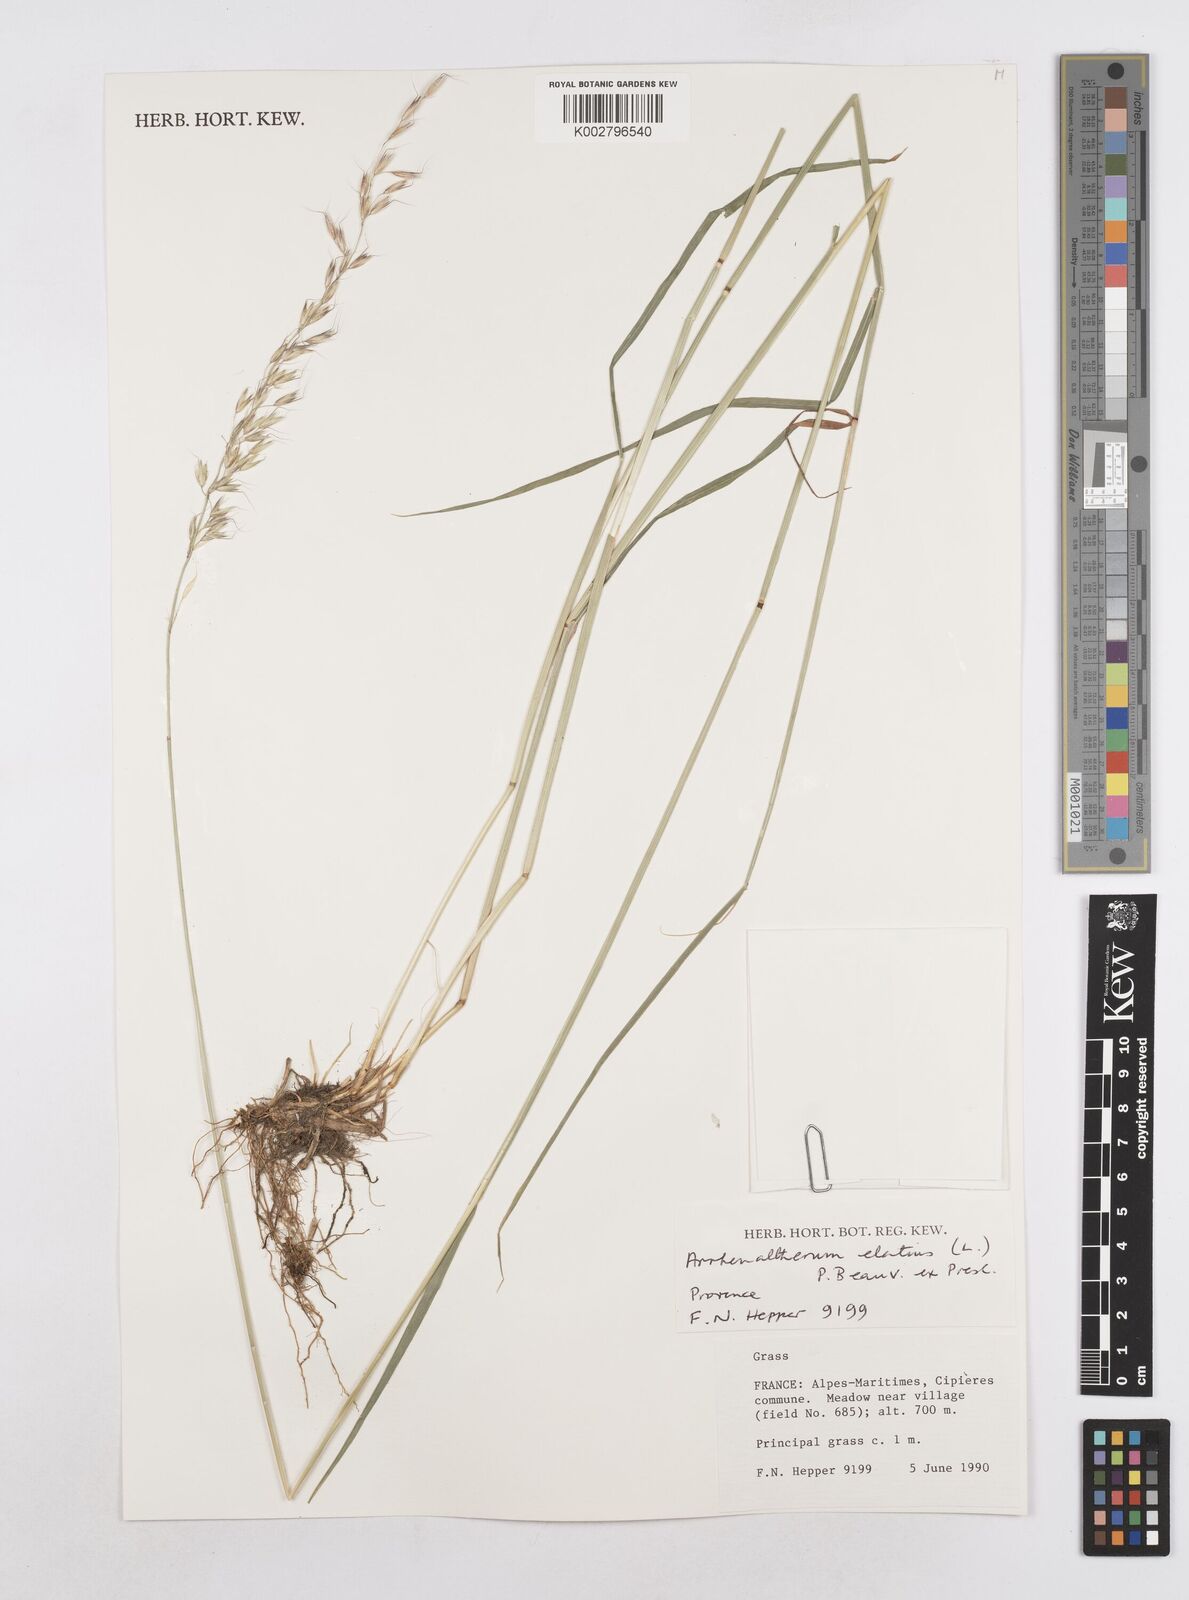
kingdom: Plantae
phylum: Tracheophyta
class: Liliopsida
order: Poales
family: Poaceae
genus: Arrhenatherum
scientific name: Arrhenatherum elatius
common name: Tall oatgrass
